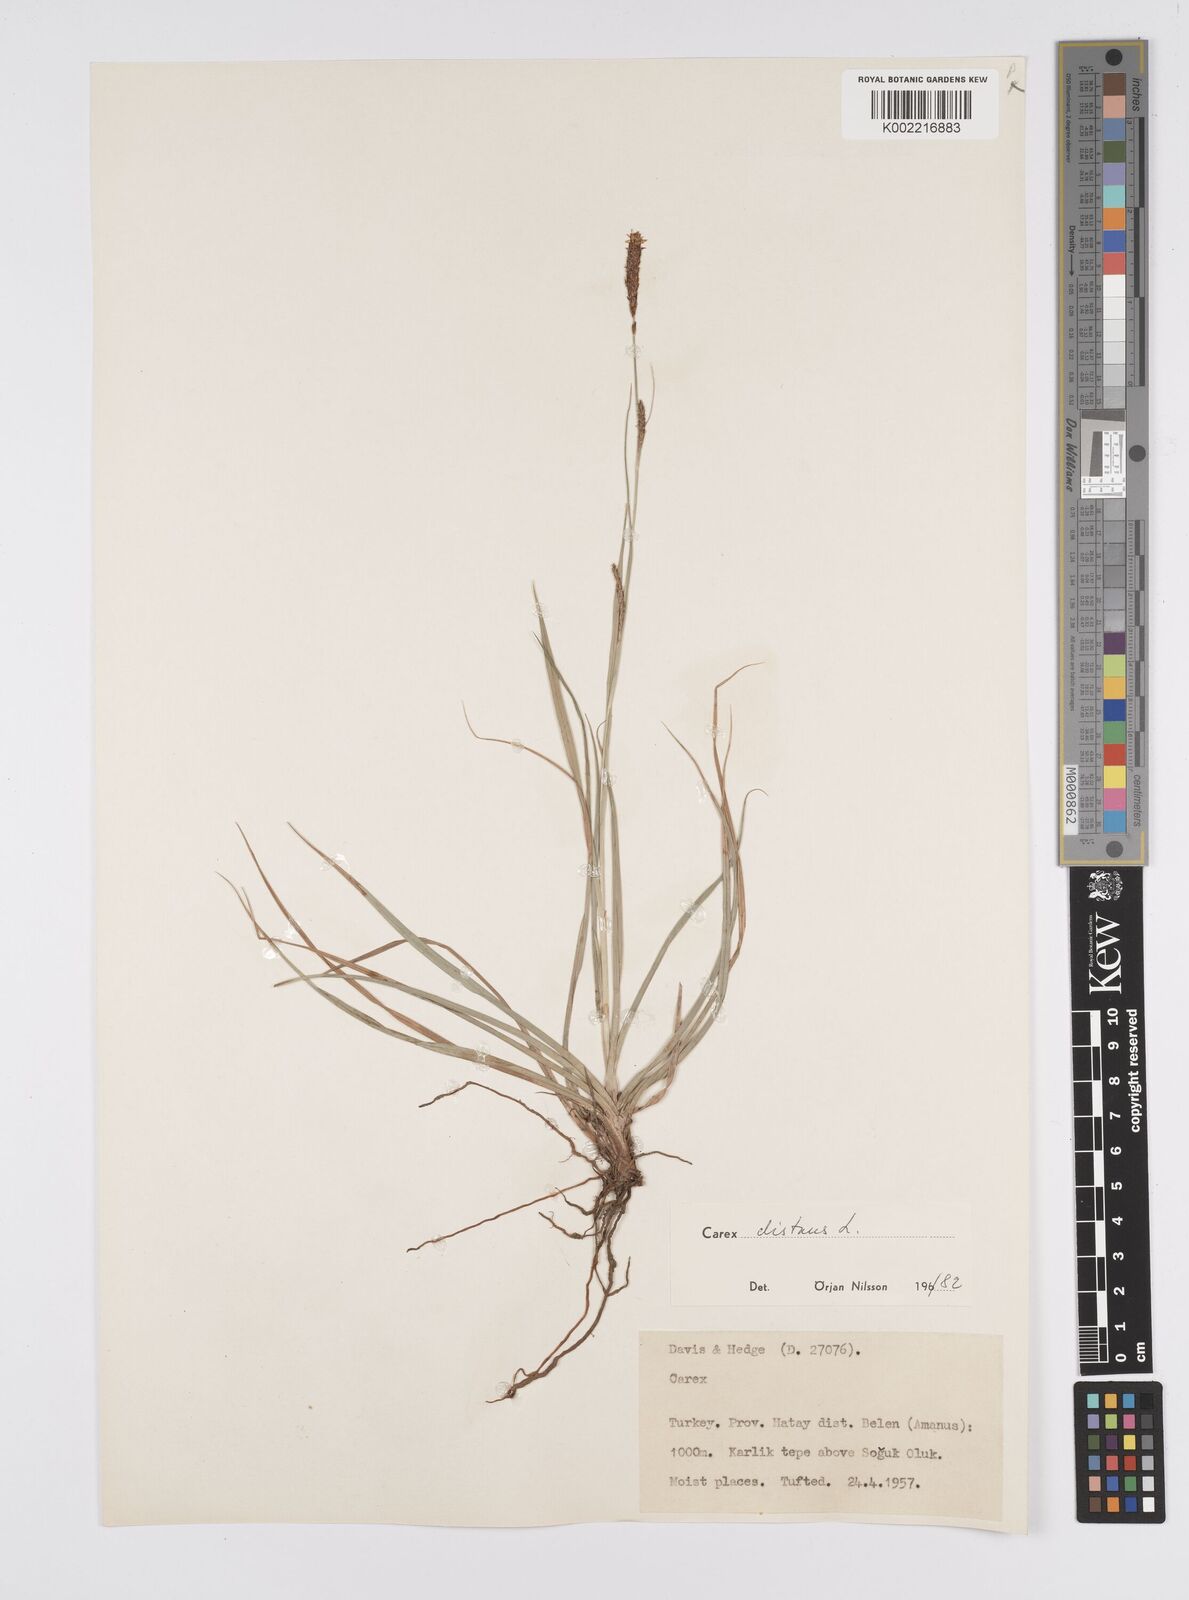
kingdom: Plantae
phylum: Tracheophyta
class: Liliopsida
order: Poales
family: Cyperaceae
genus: Carex
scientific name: Carex distans
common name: Distant sedge
